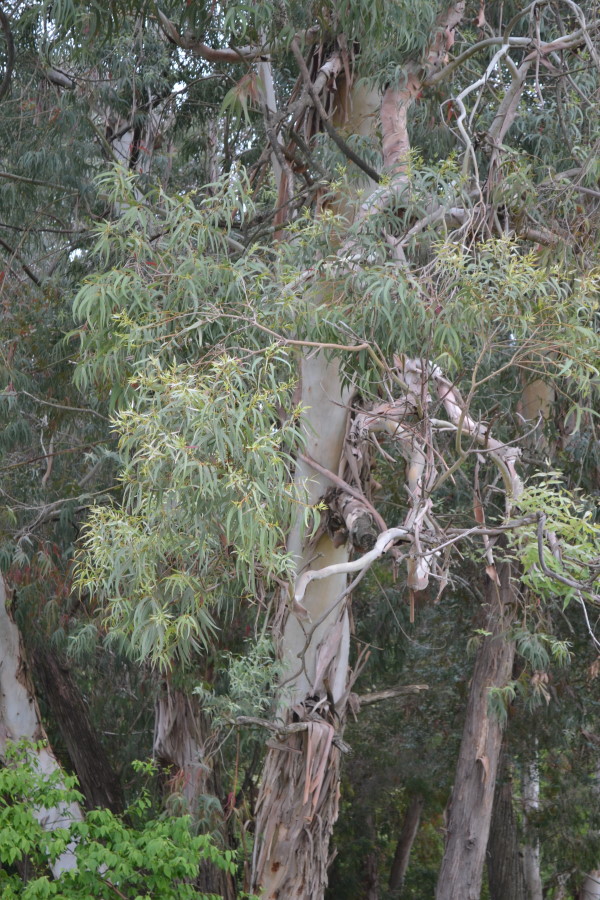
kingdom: Plantae
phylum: Tracheophyta
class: Magnoliopsida
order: Myrtales
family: Myrtaceae
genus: Eucalyptus
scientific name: Eucalyptus
